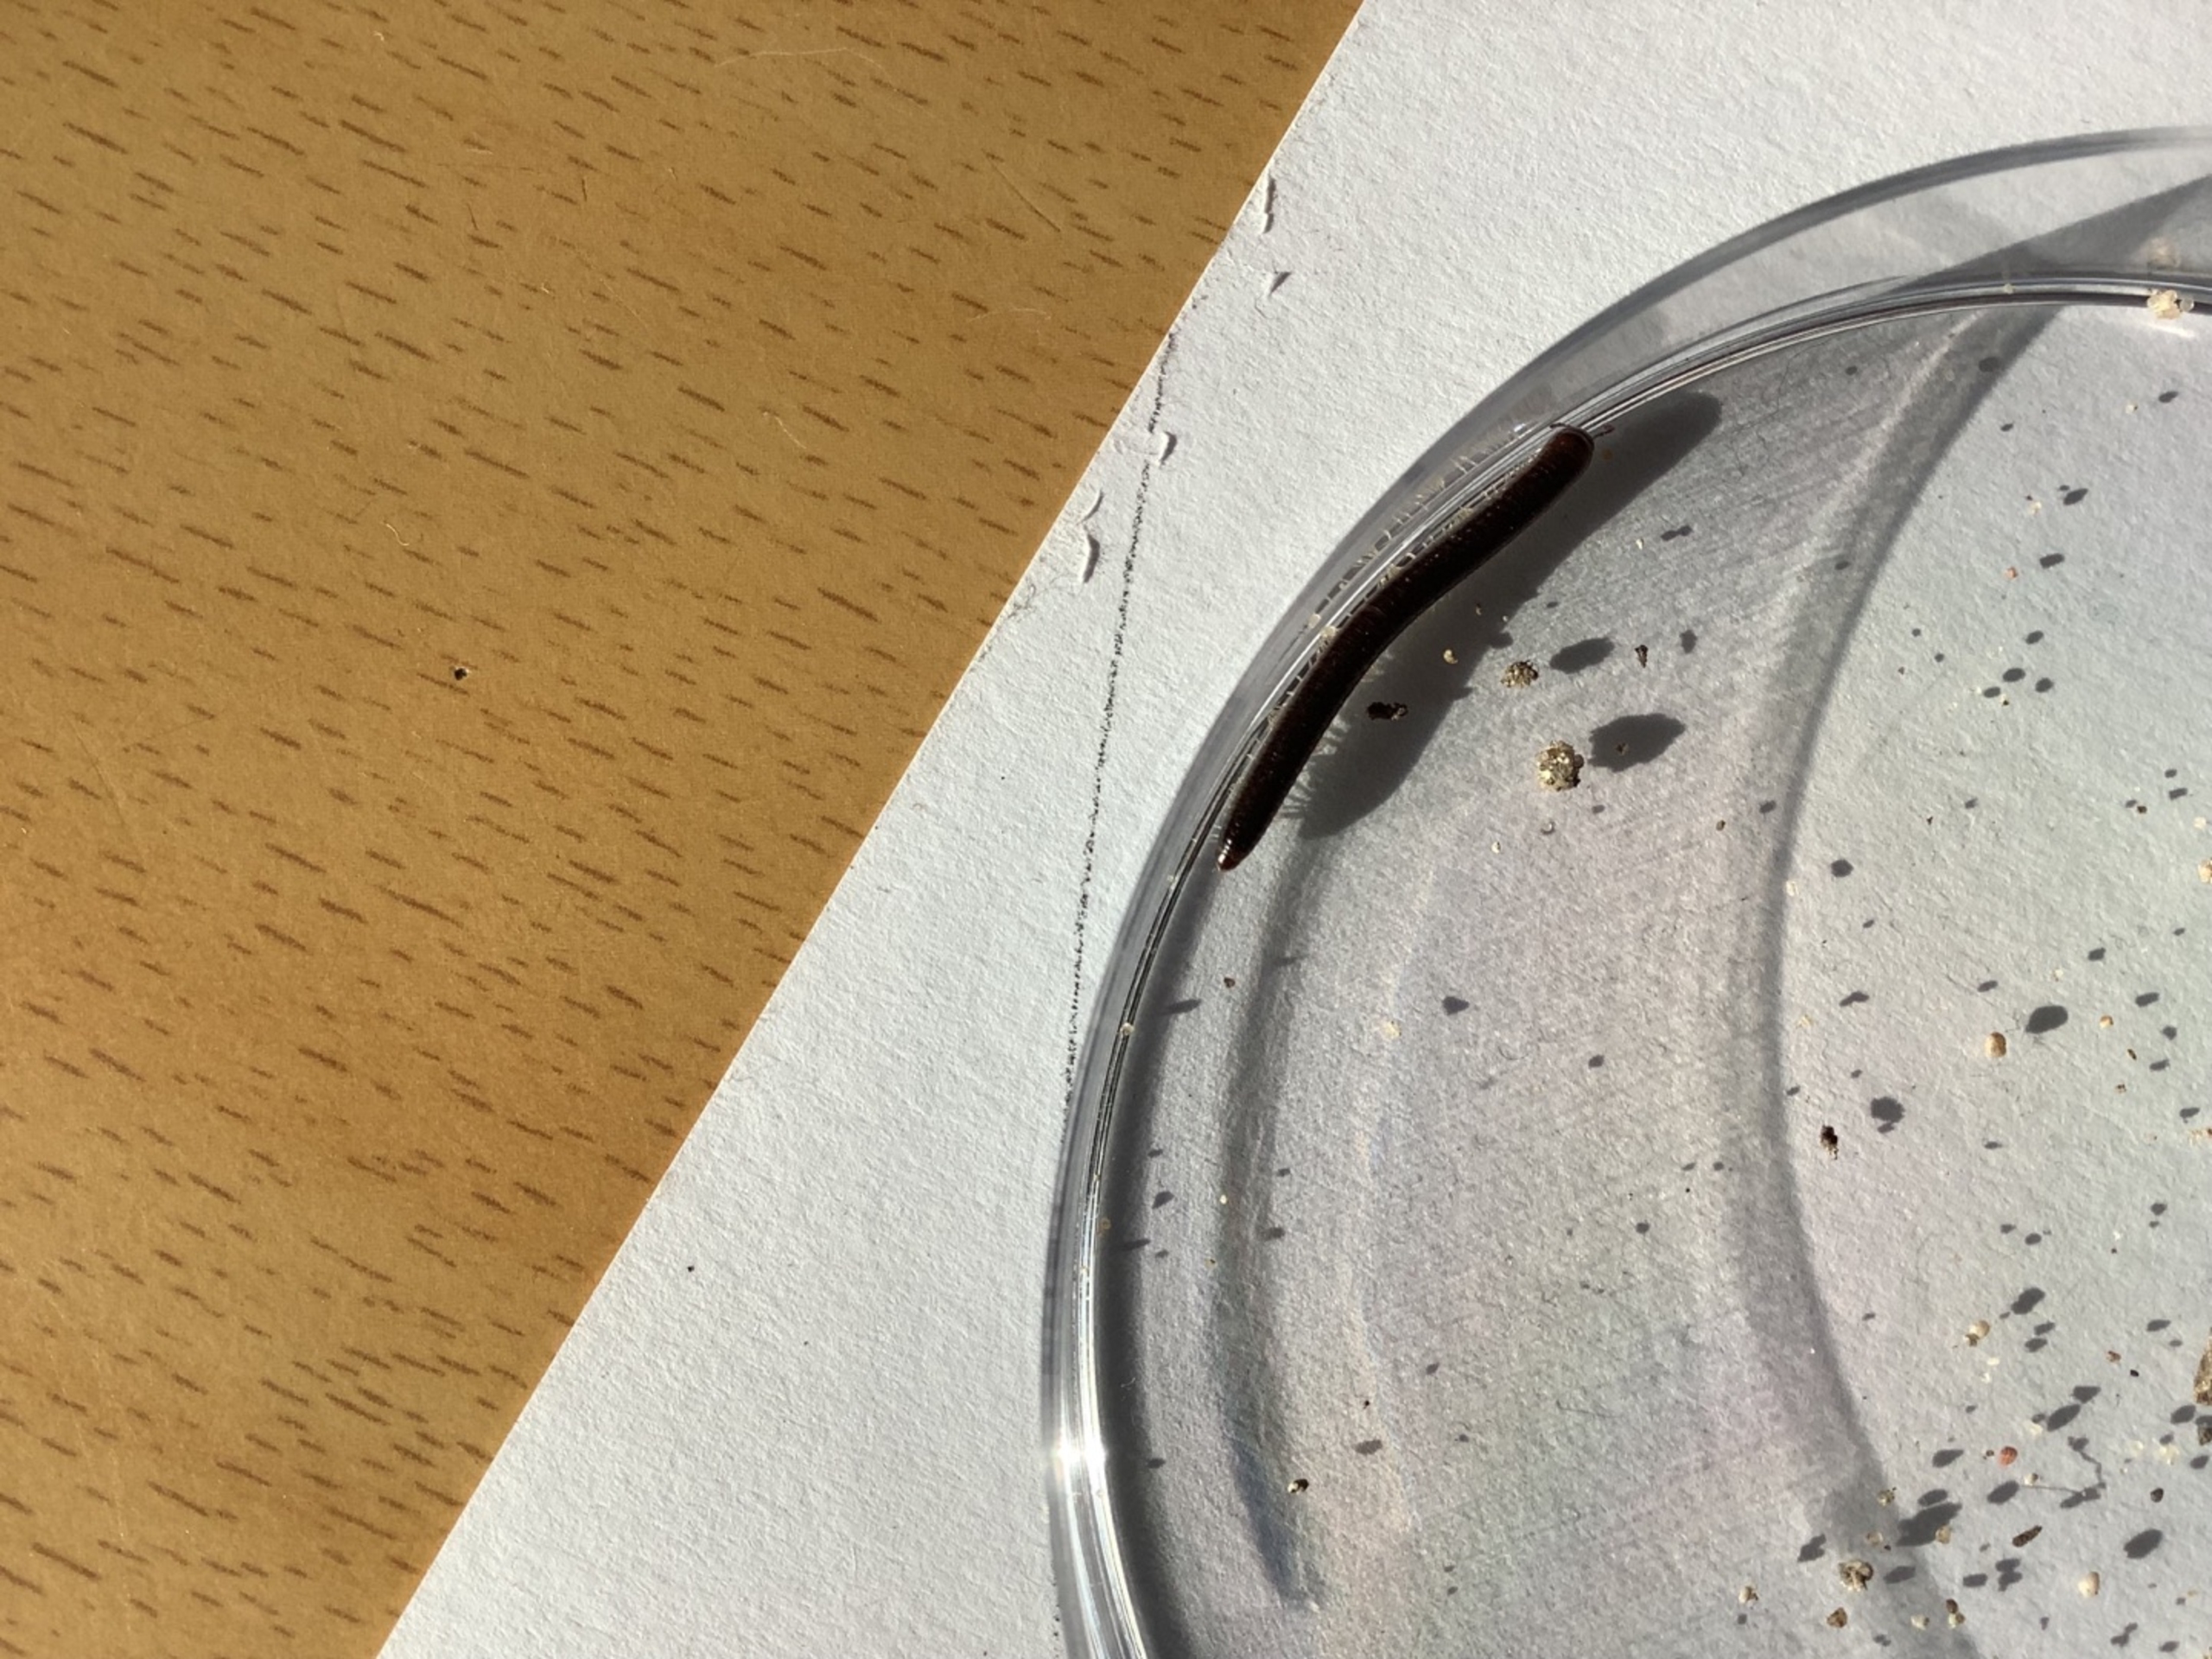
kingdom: Animalia
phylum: Arthropoda
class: Diplopoda
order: Julida
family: Julidae
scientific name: Julidae
